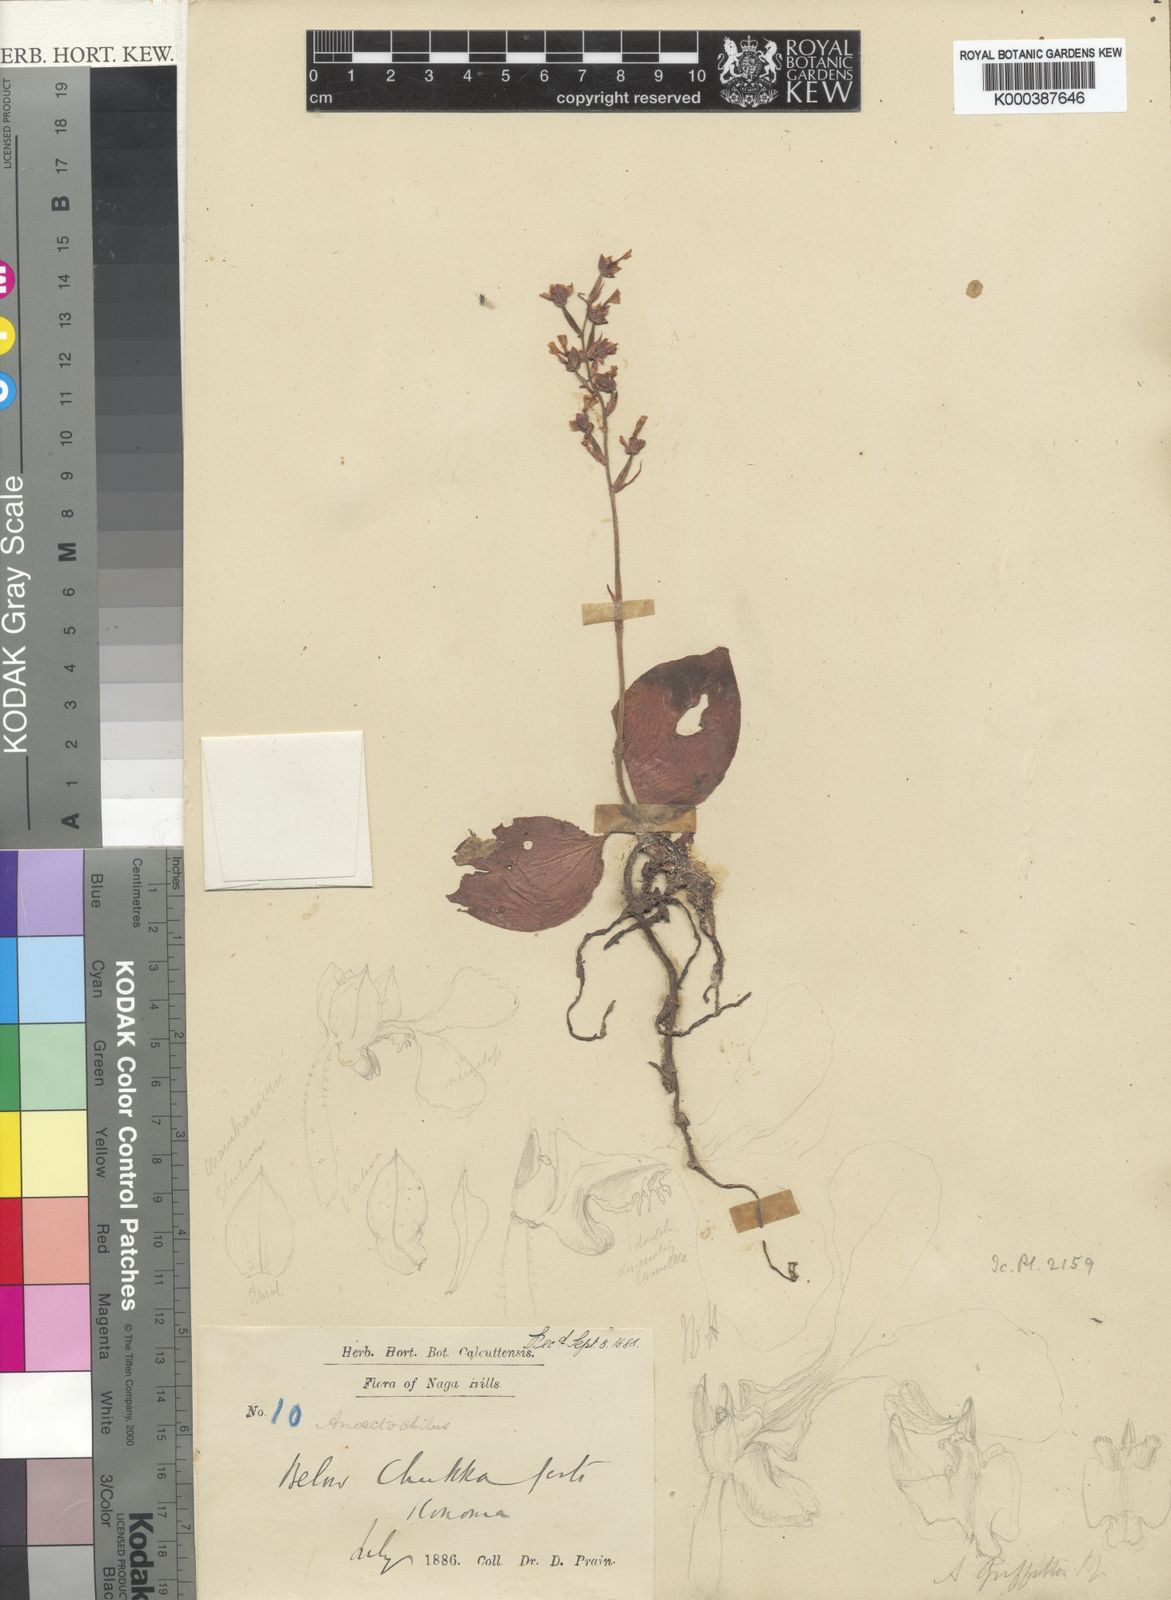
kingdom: Plantae
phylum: Tracheophyta
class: Liliopsida
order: Asparagales
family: Orchidaceae
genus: Anoectochilus
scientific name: Anoectochilus brevilabris
